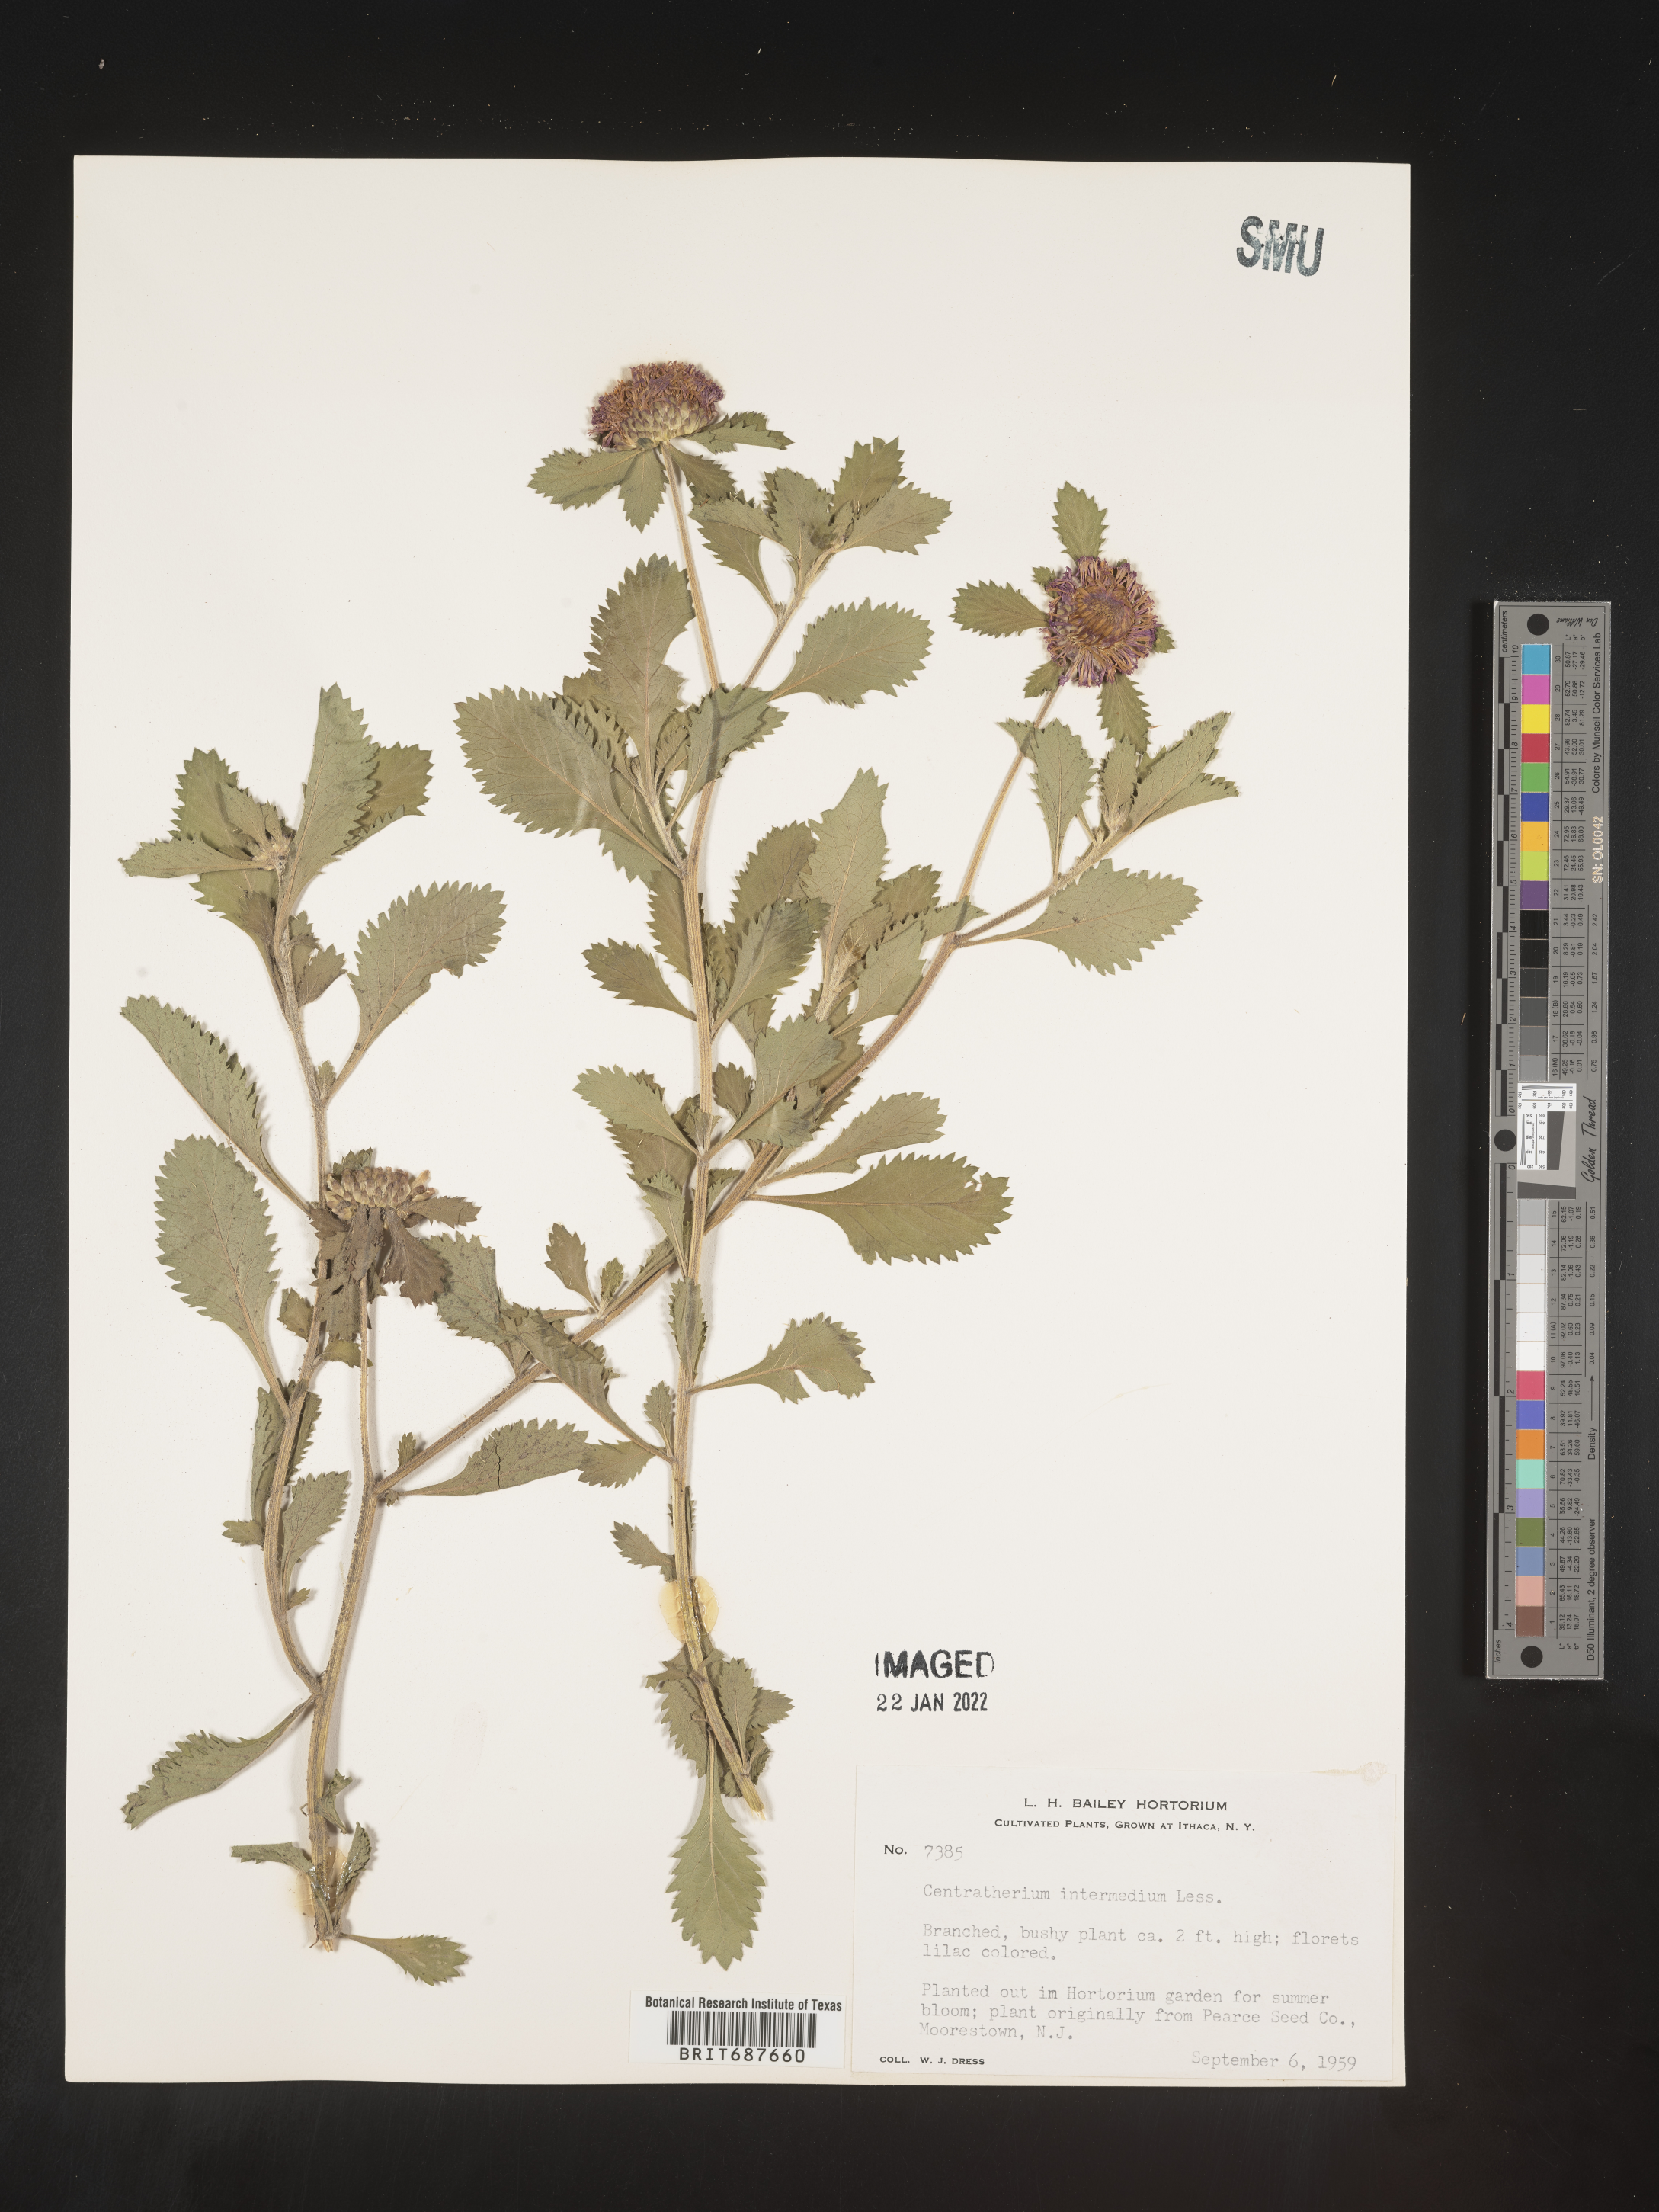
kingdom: Plantae
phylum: Tracheophyta
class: Magnoliopsida
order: Asterales
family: Asteraceae
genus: Centratherum
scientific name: Centratherum
